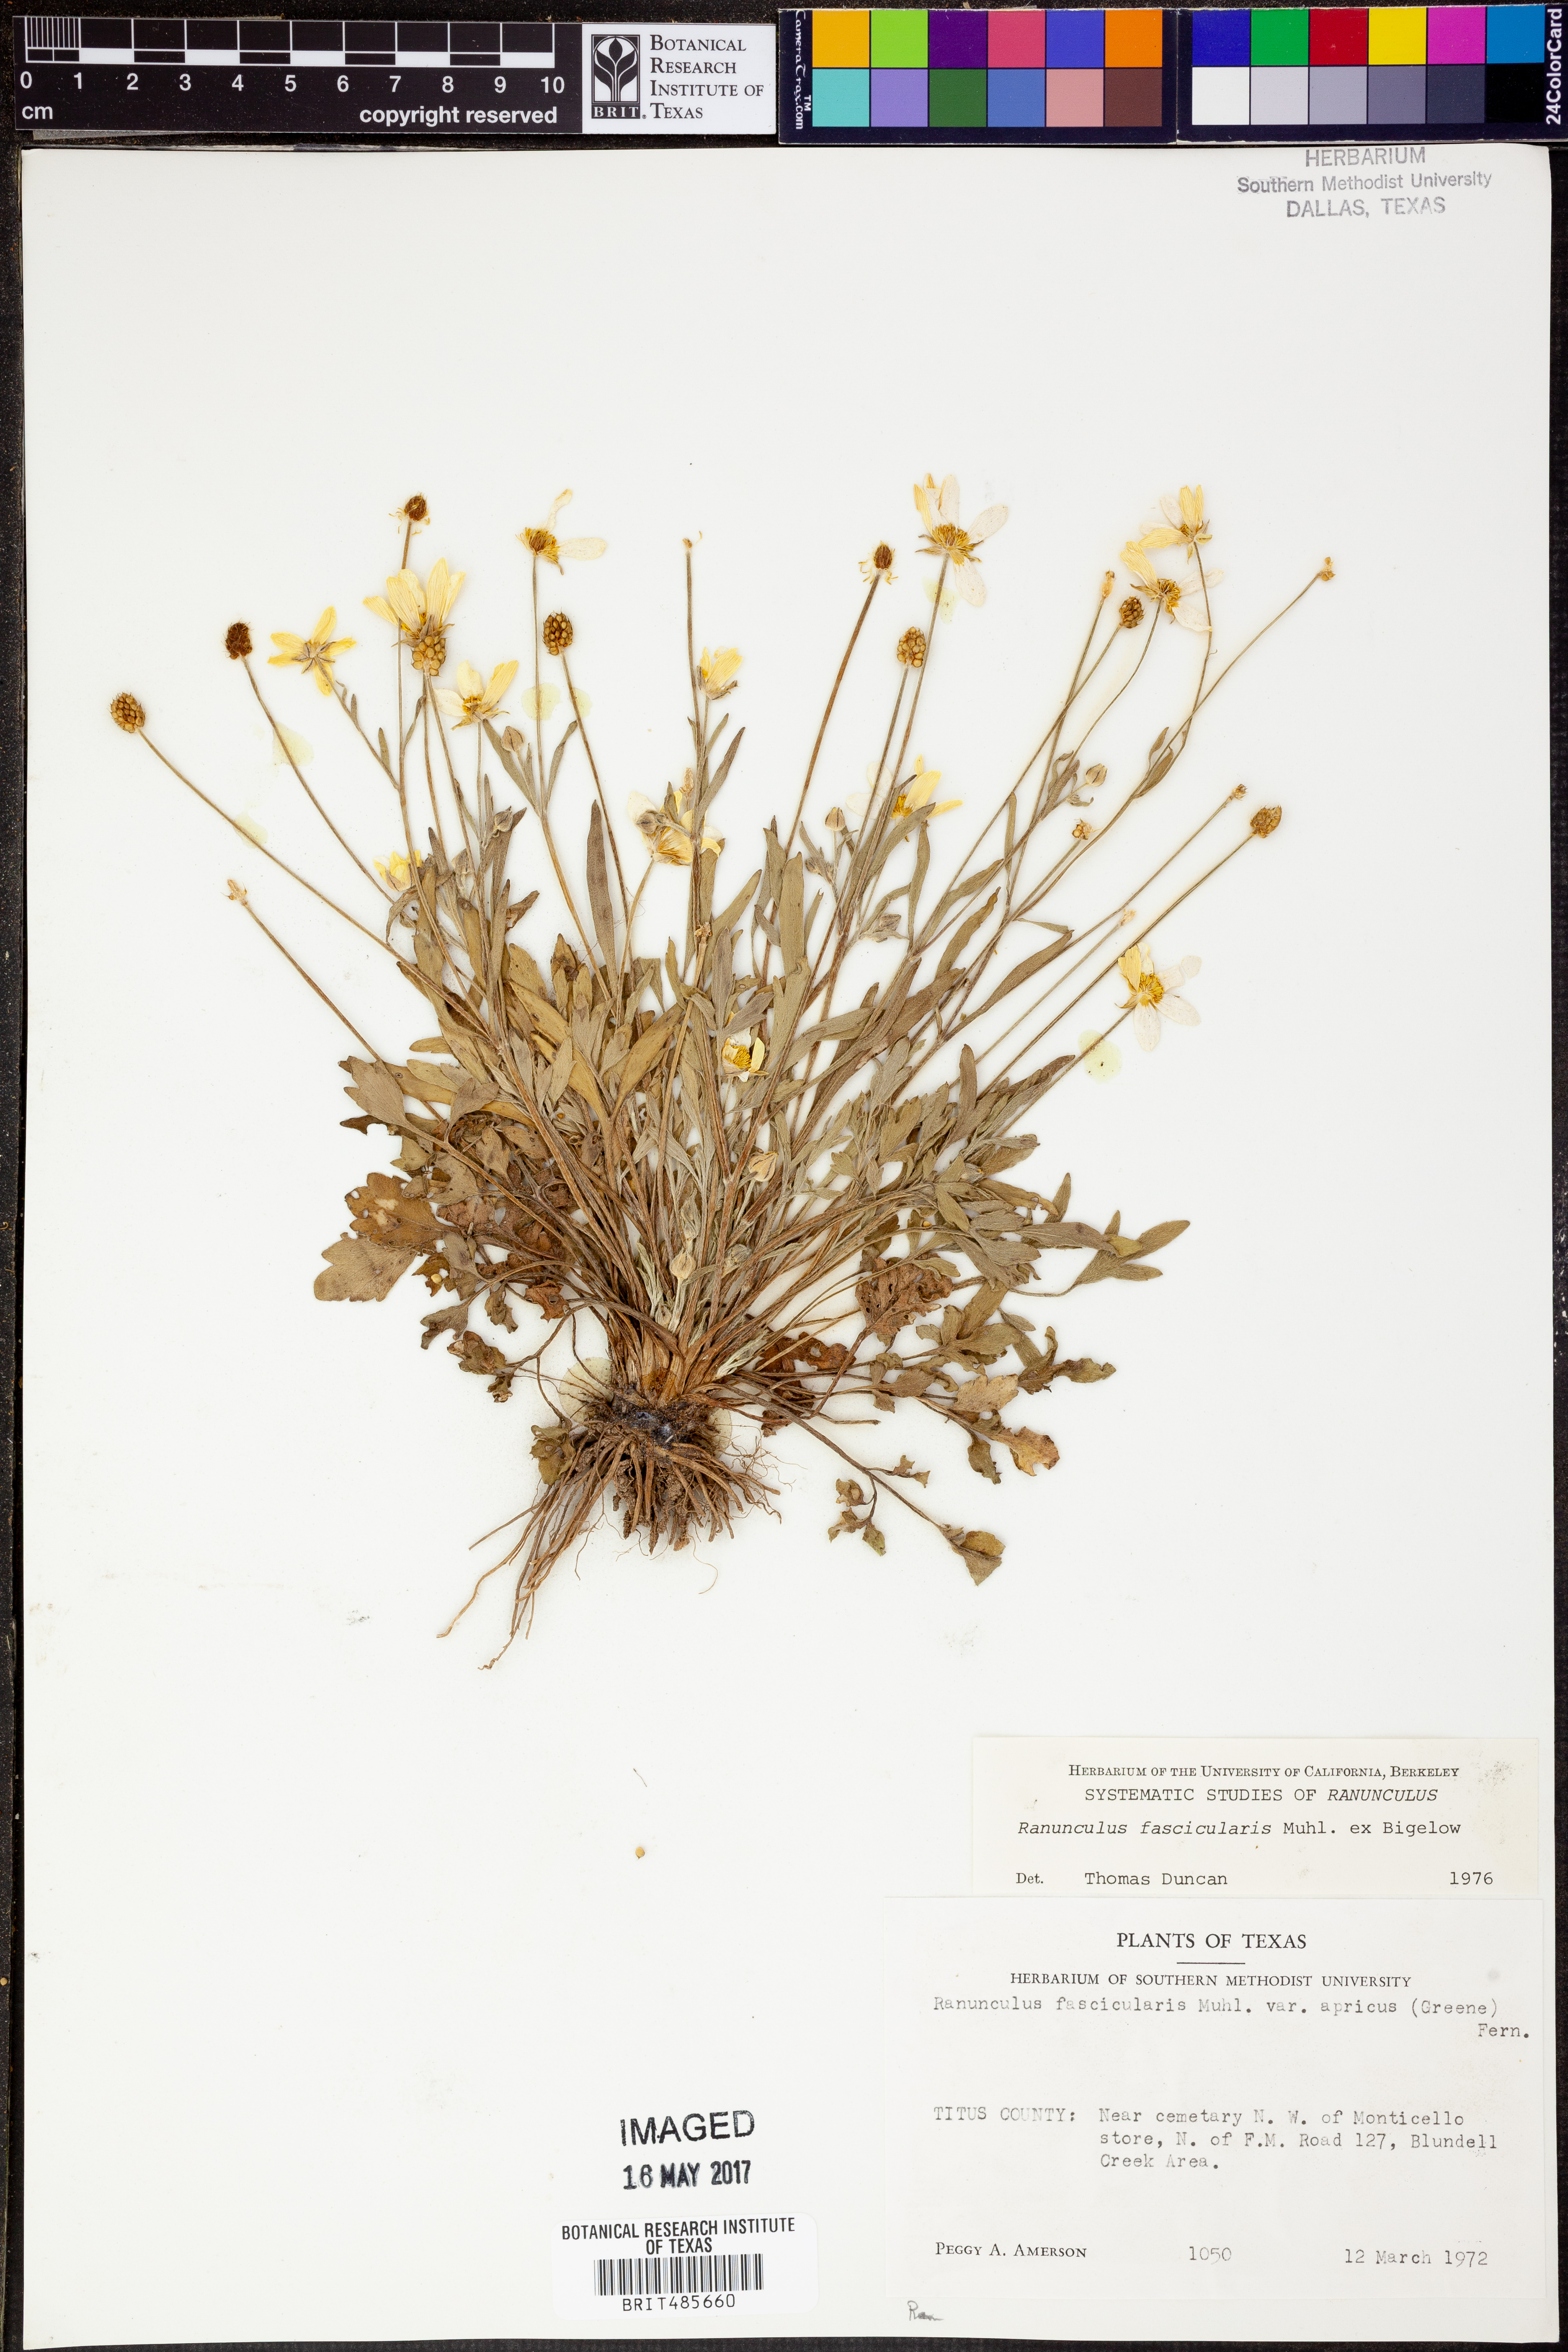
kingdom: Plantae
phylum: Tracheophyta
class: Magnoliopsida
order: Ranunculales
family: Ranunculaceae
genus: Ranunculus
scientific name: Ranunculus fascicularis
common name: Early buttercup
